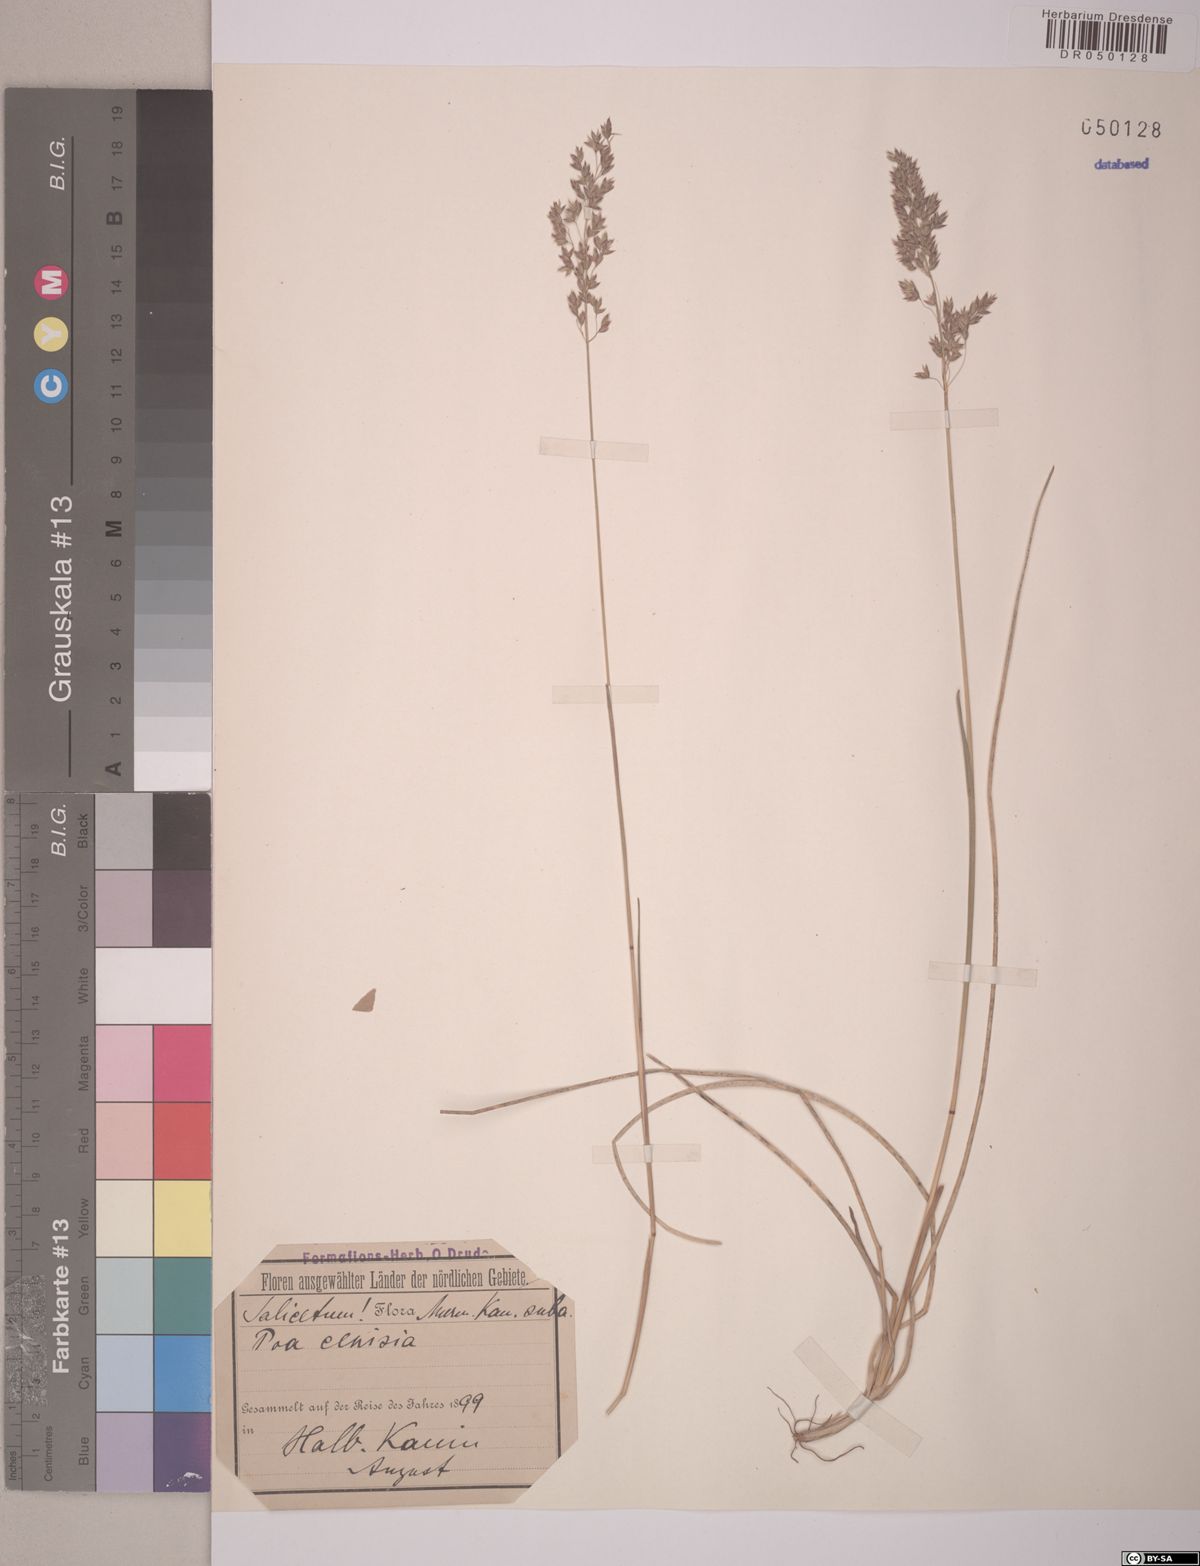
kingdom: Plantae
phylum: Tracheophyta
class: Liliopsida
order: Poales
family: Poaceae
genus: Poa
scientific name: Poa cenisia
